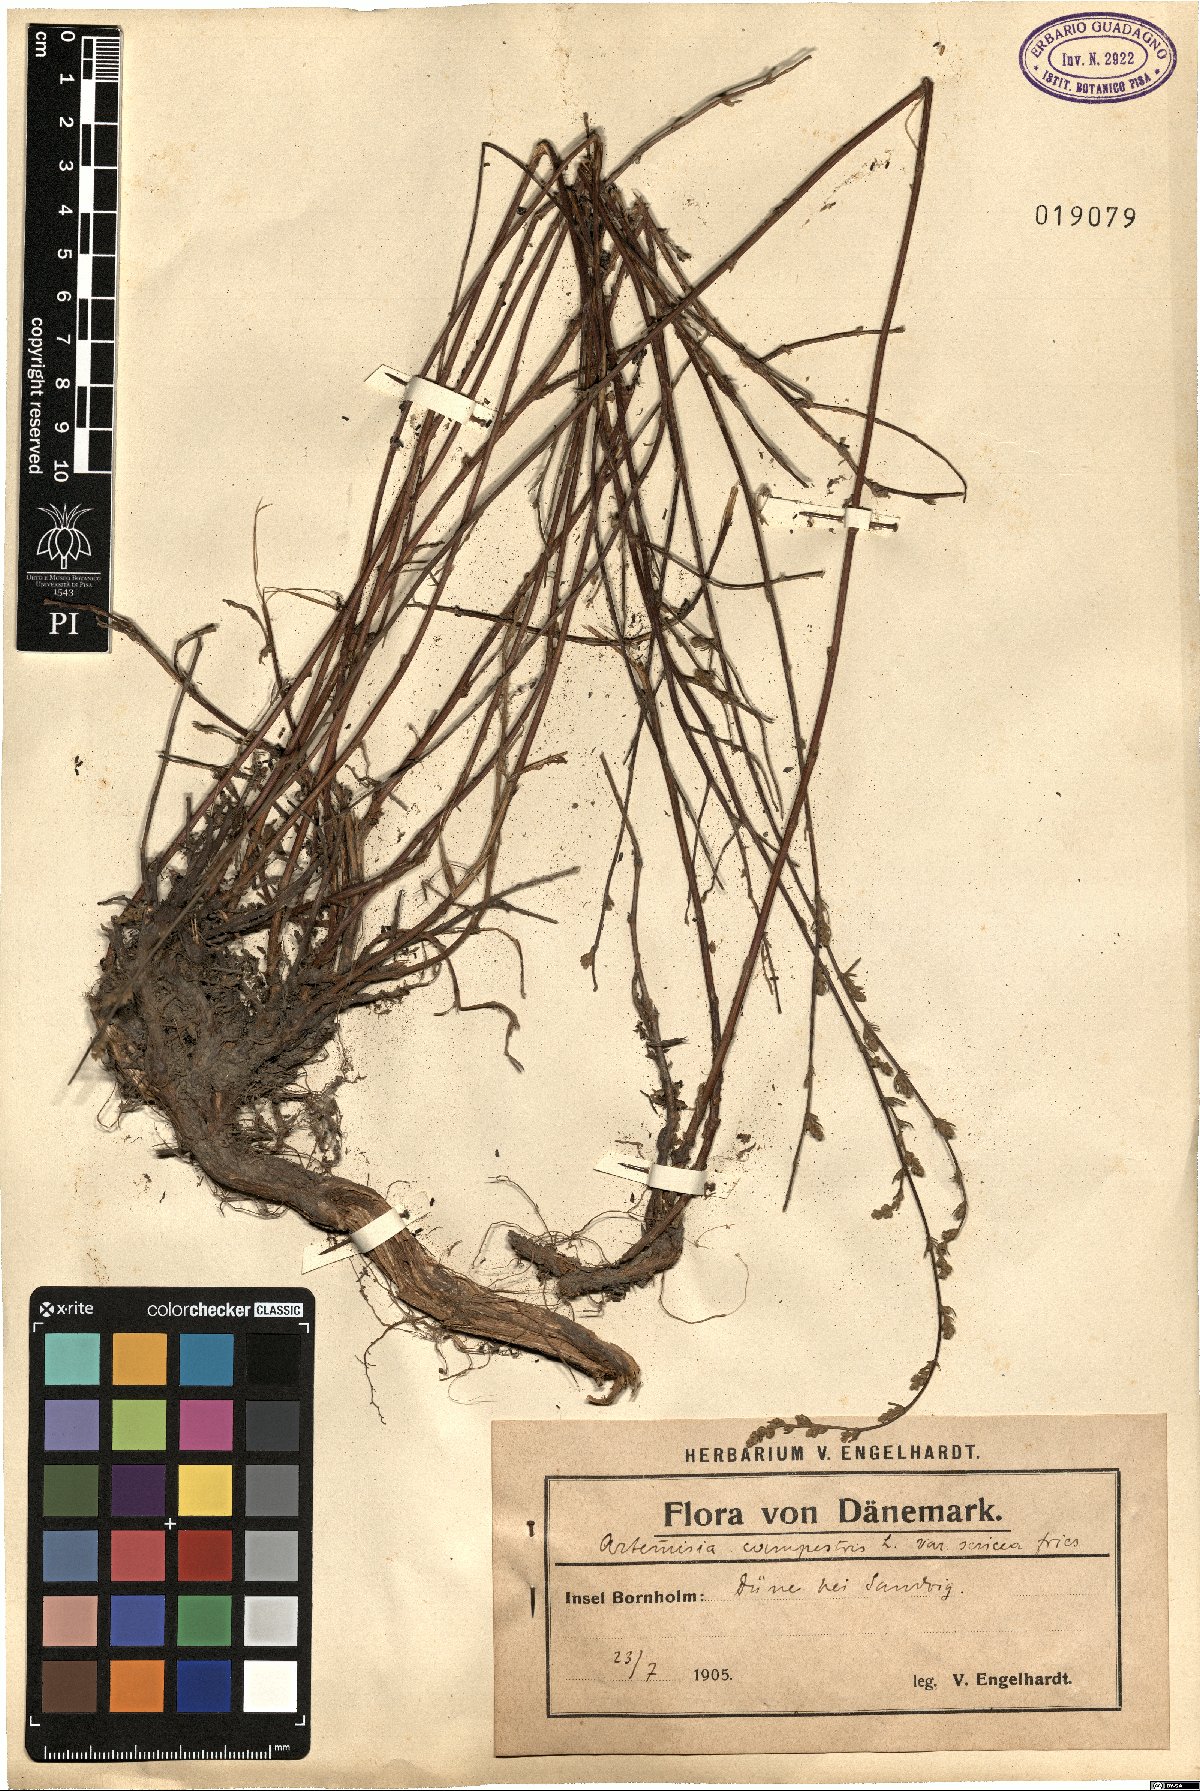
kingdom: Plantae
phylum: Tracheophyta
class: Magnoliopsida
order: Asterales
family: Asteraceae
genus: Artemisia
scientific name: Artemisia campestris
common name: Field wormwood
